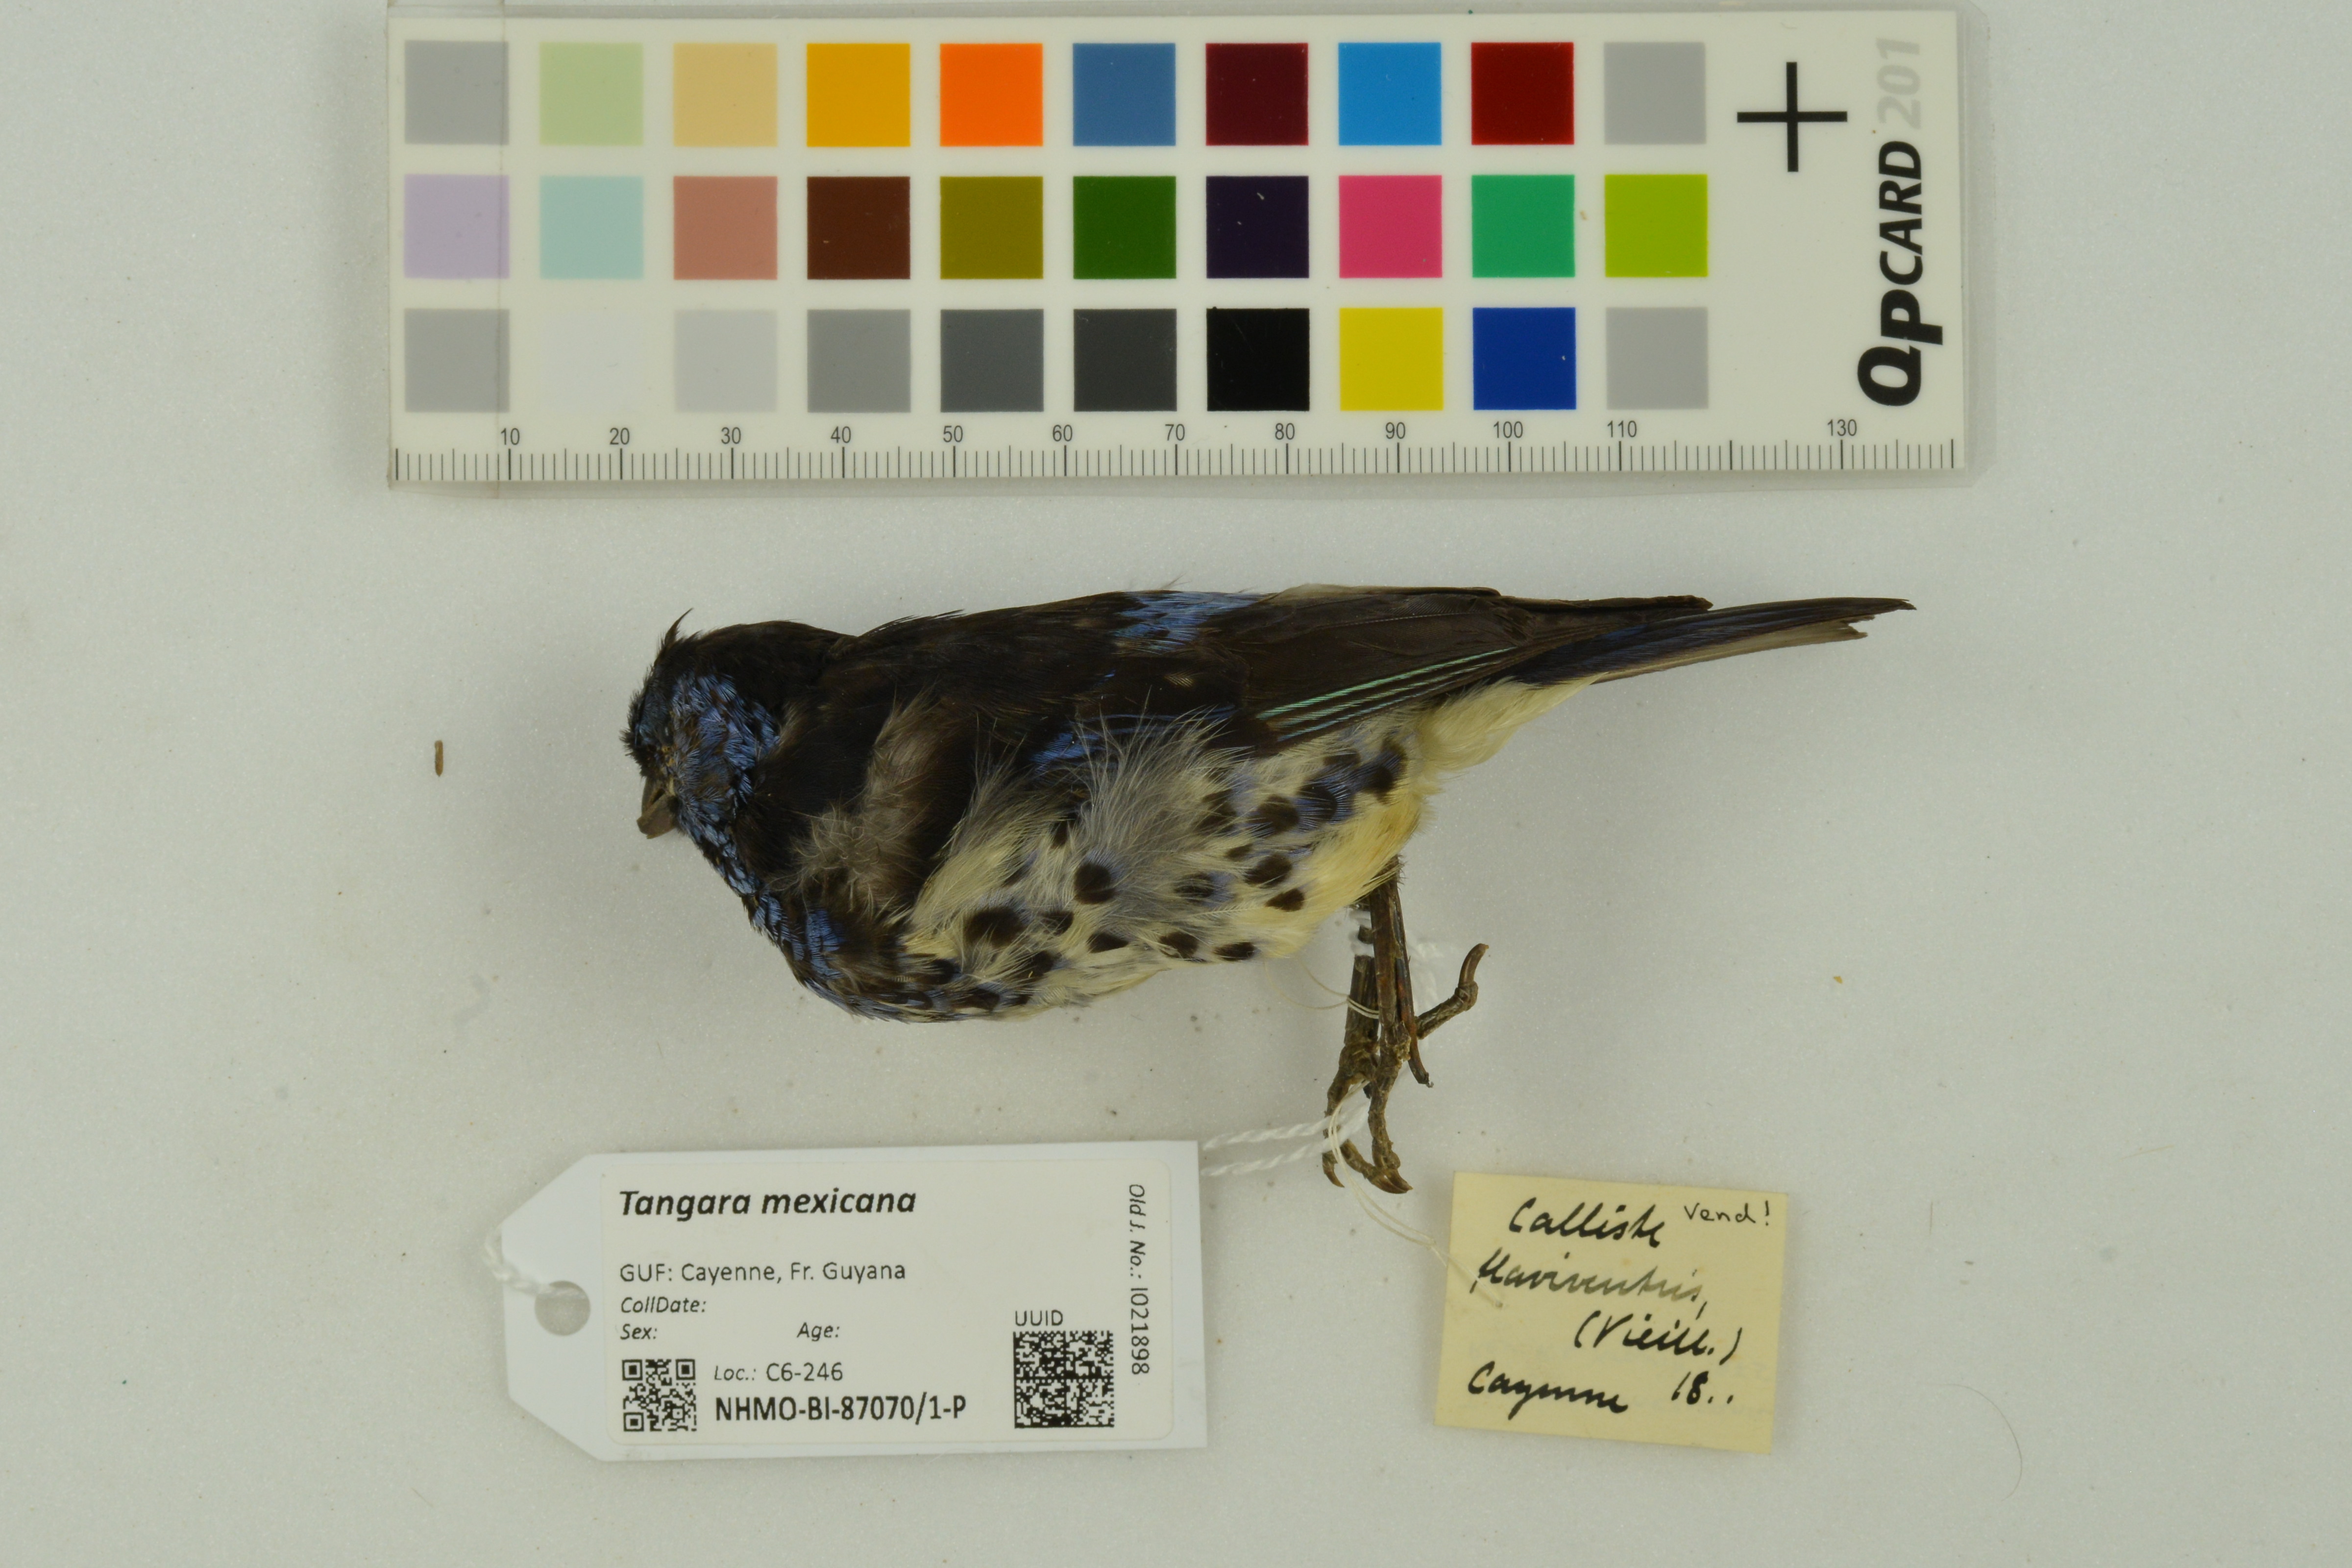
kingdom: Animalia
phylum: Chordata
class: Aves
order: Passeriformes
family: Thraupidae
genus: Tangara
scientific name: Tangara mexicana
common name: Turquoise tanager
